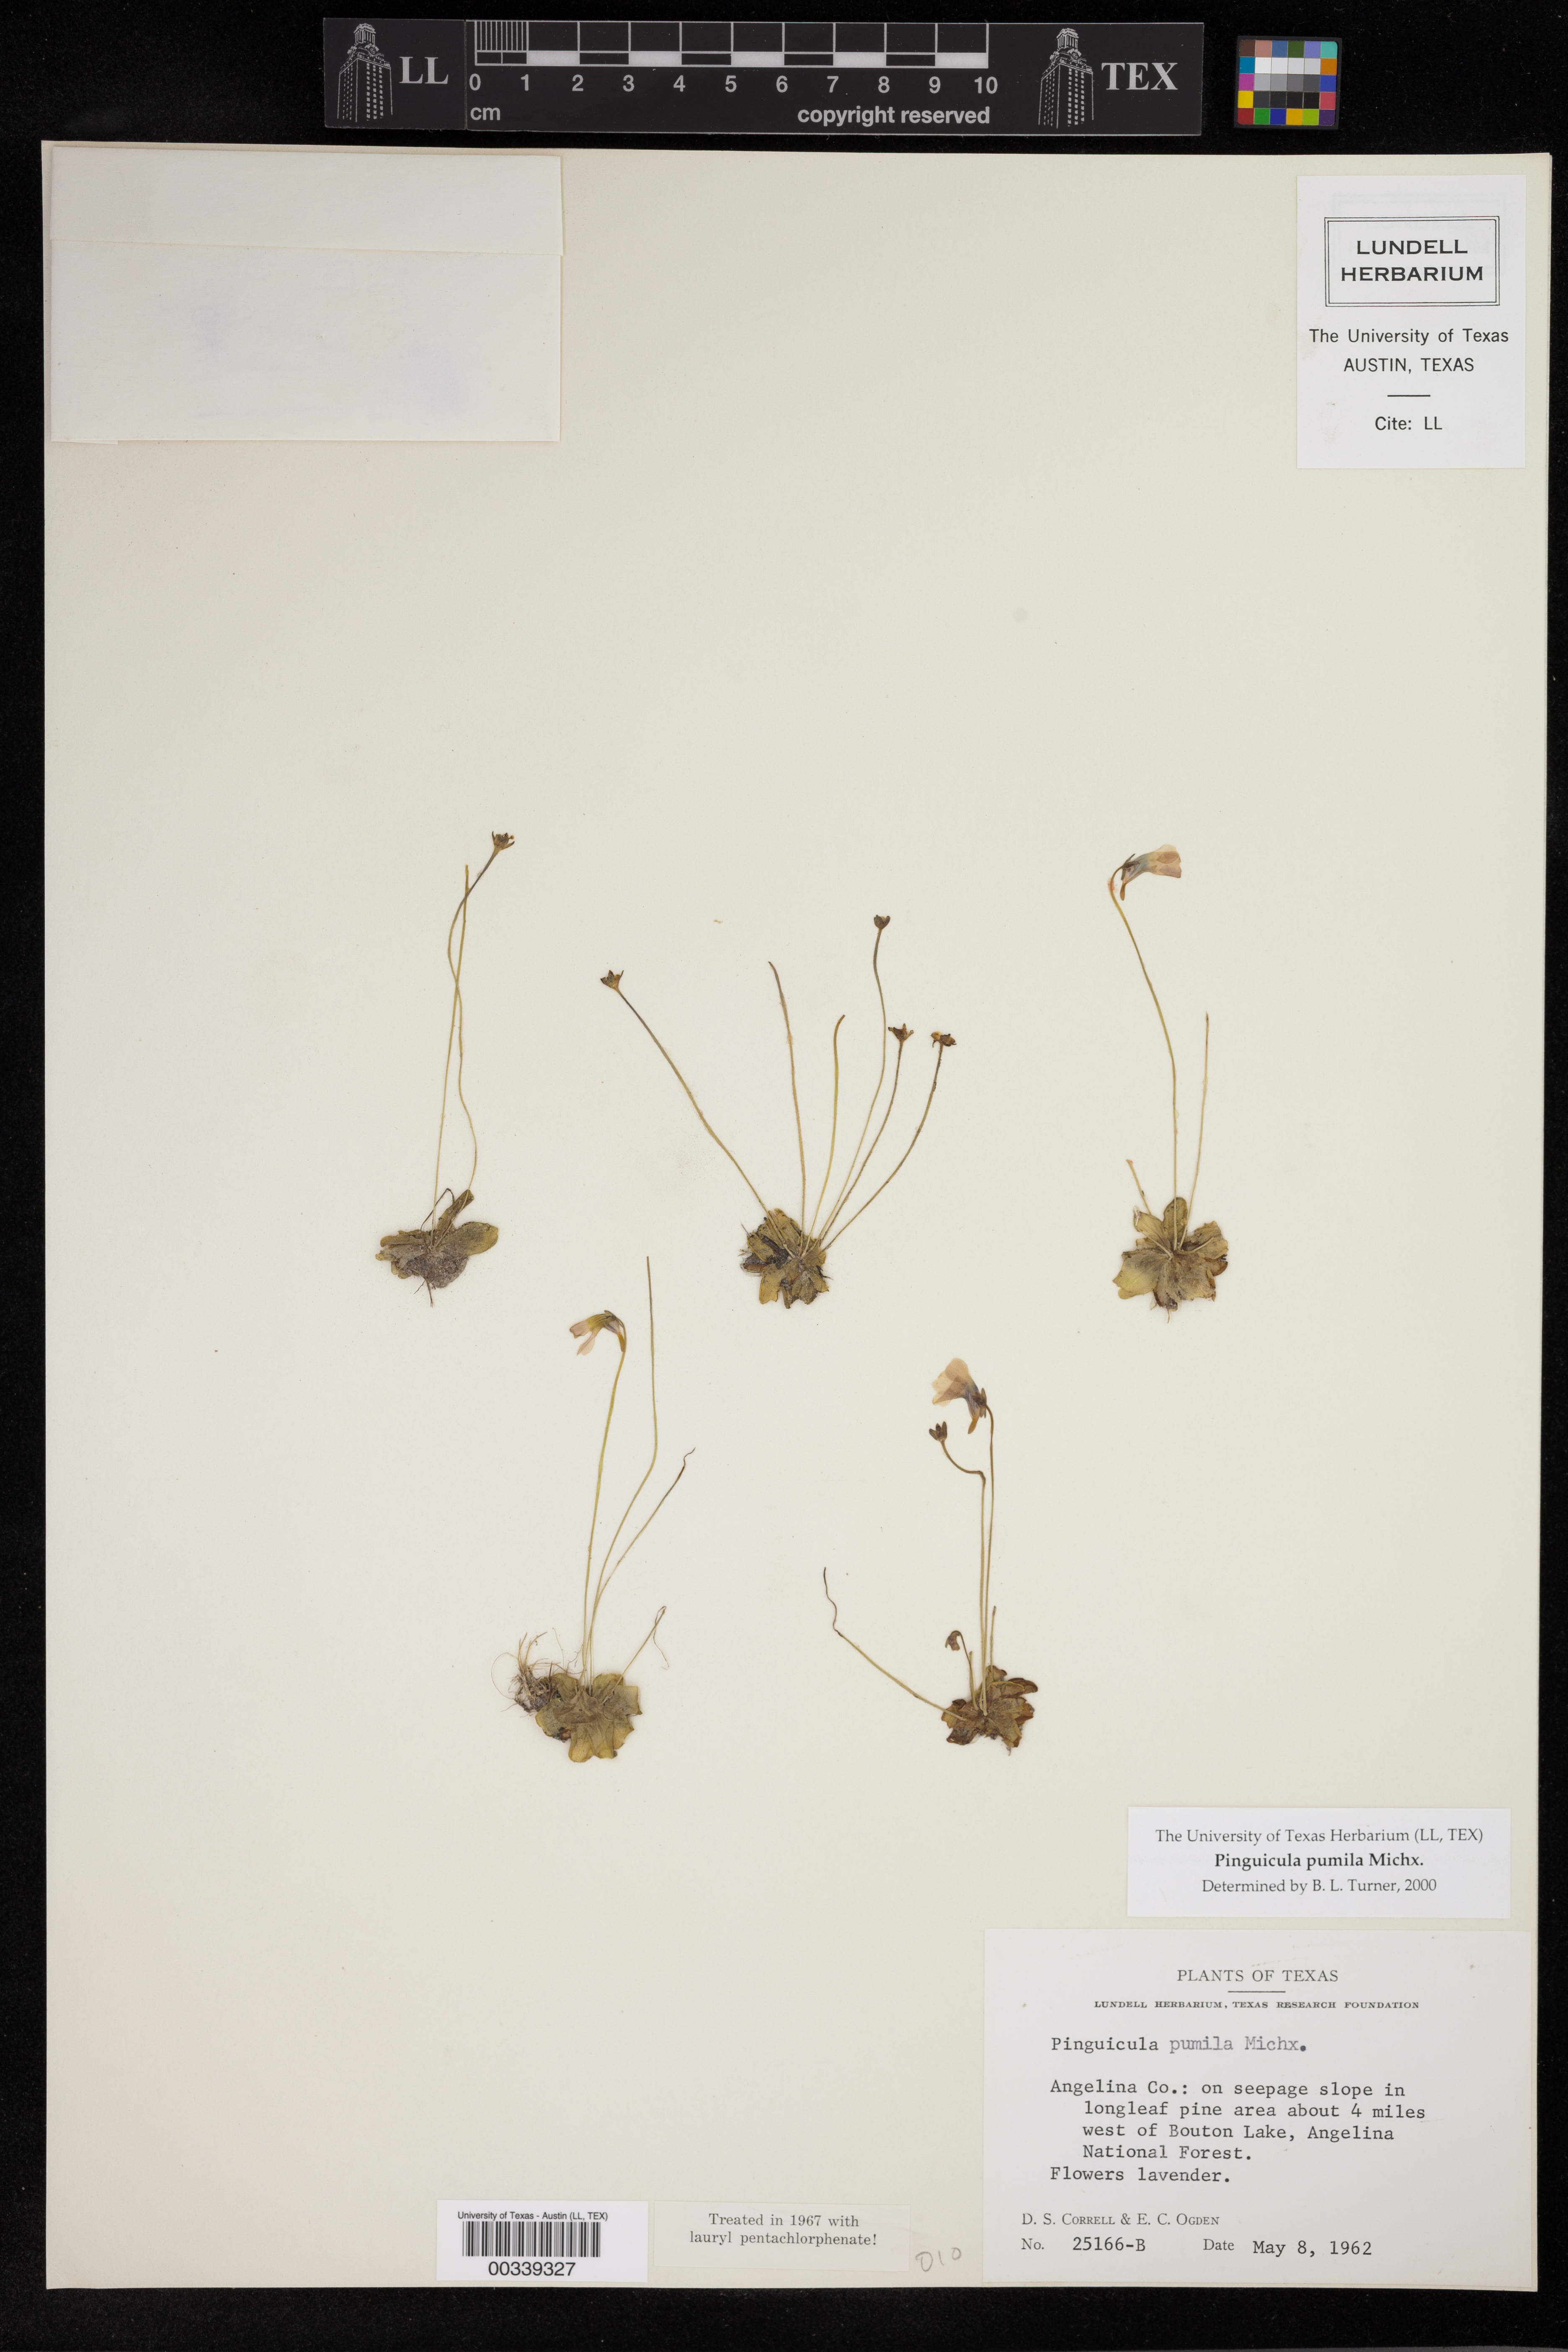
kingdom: Plantae
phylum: Tracheophyta
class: Magnoliopsida
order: Lamiales
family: Lentibulariaceae
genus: Pinguicula
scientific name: Pinguicula pumila
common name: Small butterwort
